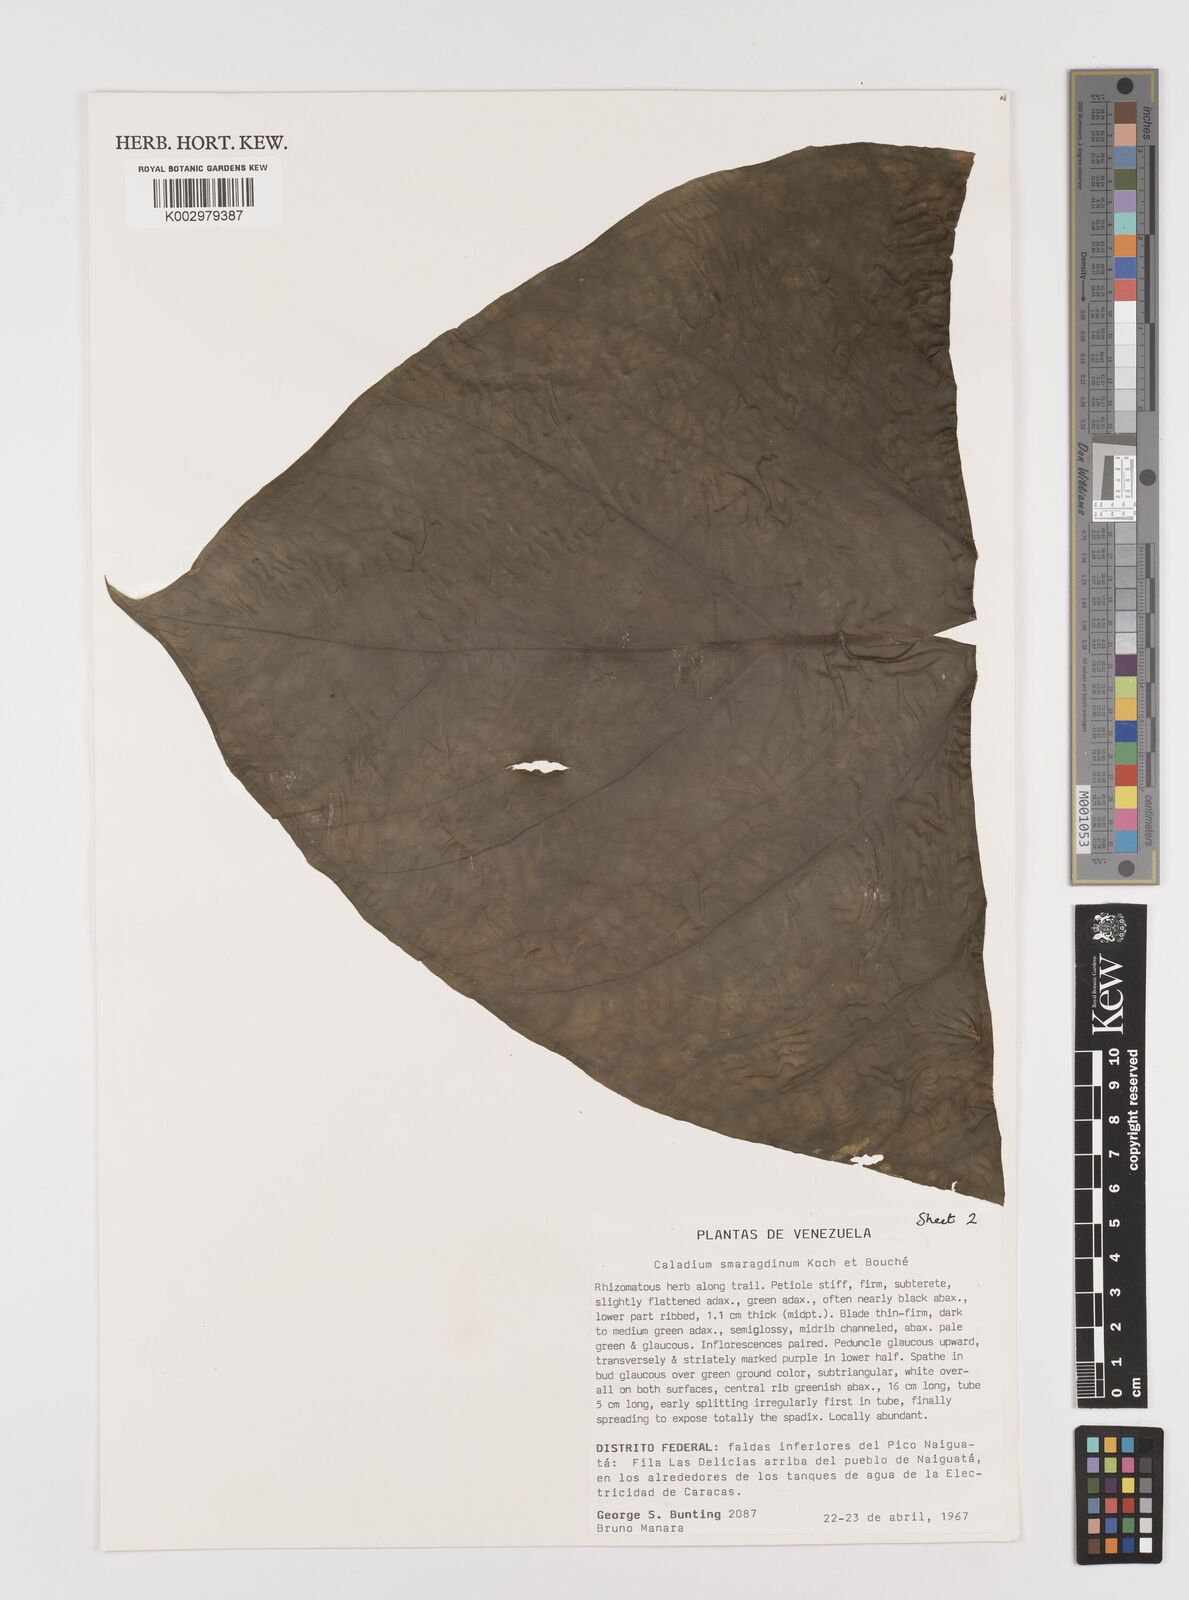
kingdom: Plantae
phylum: Tracheophyta
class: Liliopsida
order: Alismatales
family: Araceae
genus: Caladium
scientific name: Caladium smaragdinum
